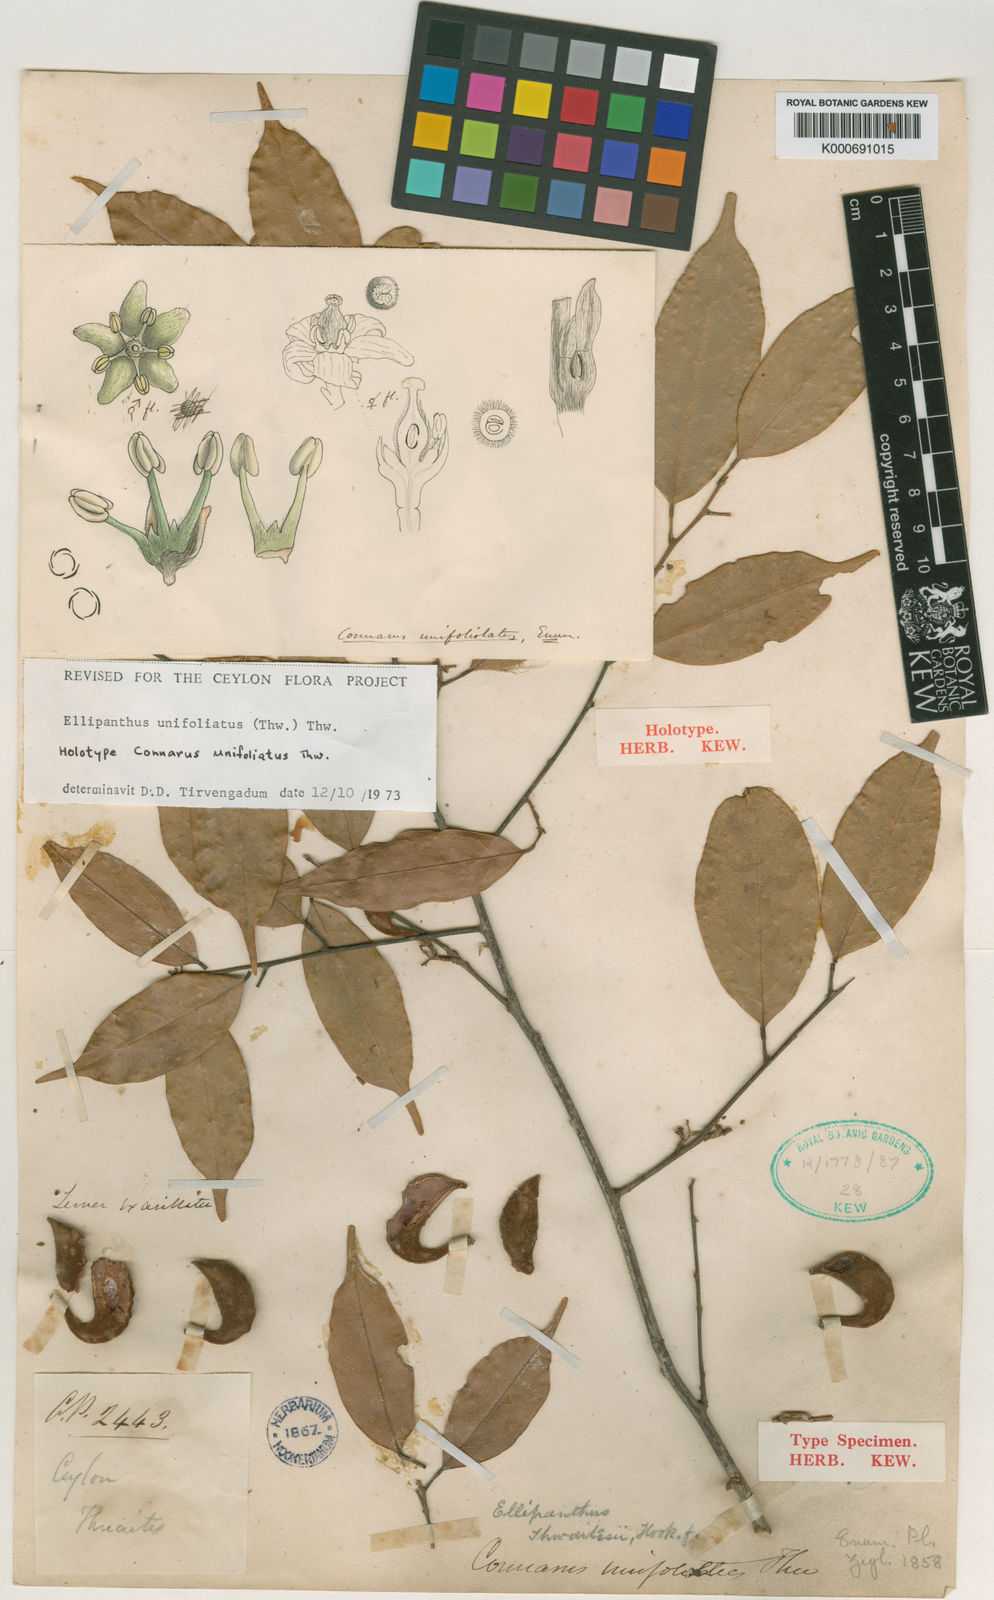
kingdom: Plantae
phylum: Tracheophyta
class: Magnoliopsida
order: Oxalidales
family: Connaraceae
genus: Ellipanthus
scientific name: Ellipanthus unifoliolatus
